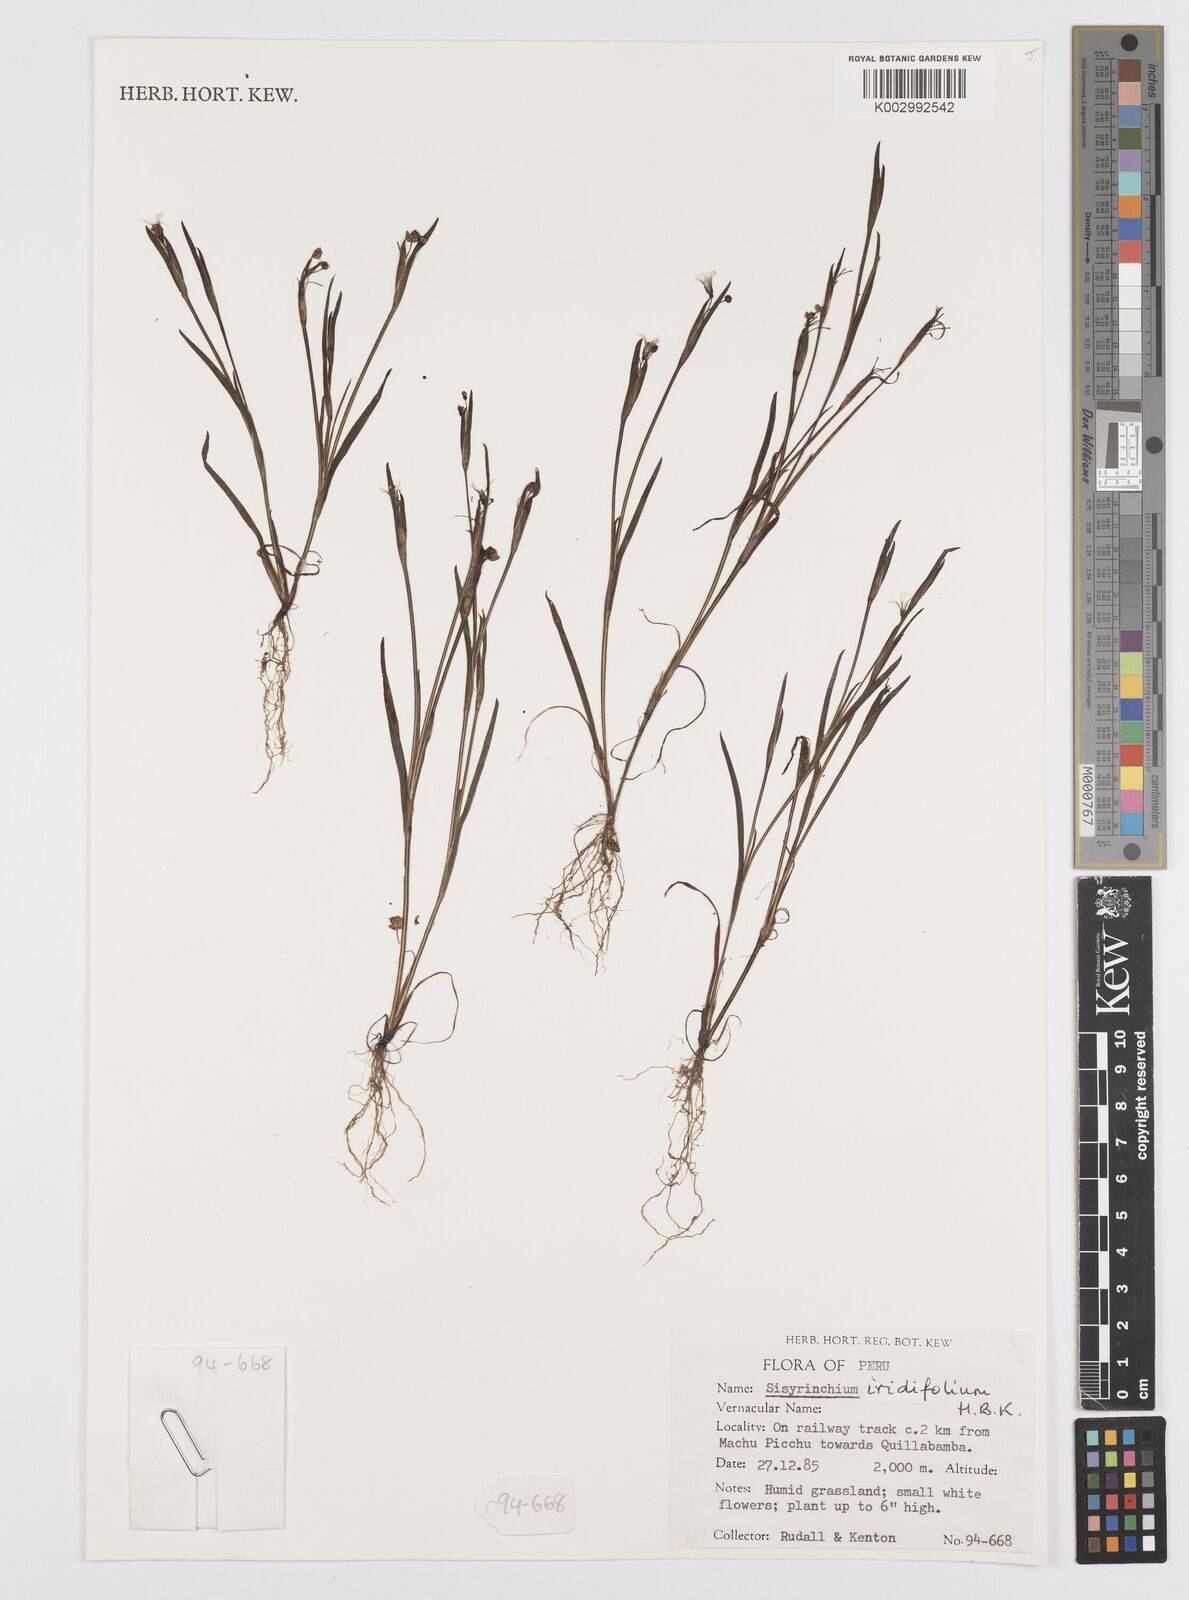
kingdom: Plantae
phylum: Tracheophyta
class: Liliopsida
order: Asparagales
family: Iridaceae
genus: Sisyrinchium
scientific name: Sisyrinchium micranthum
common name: Bermuda pigroot
